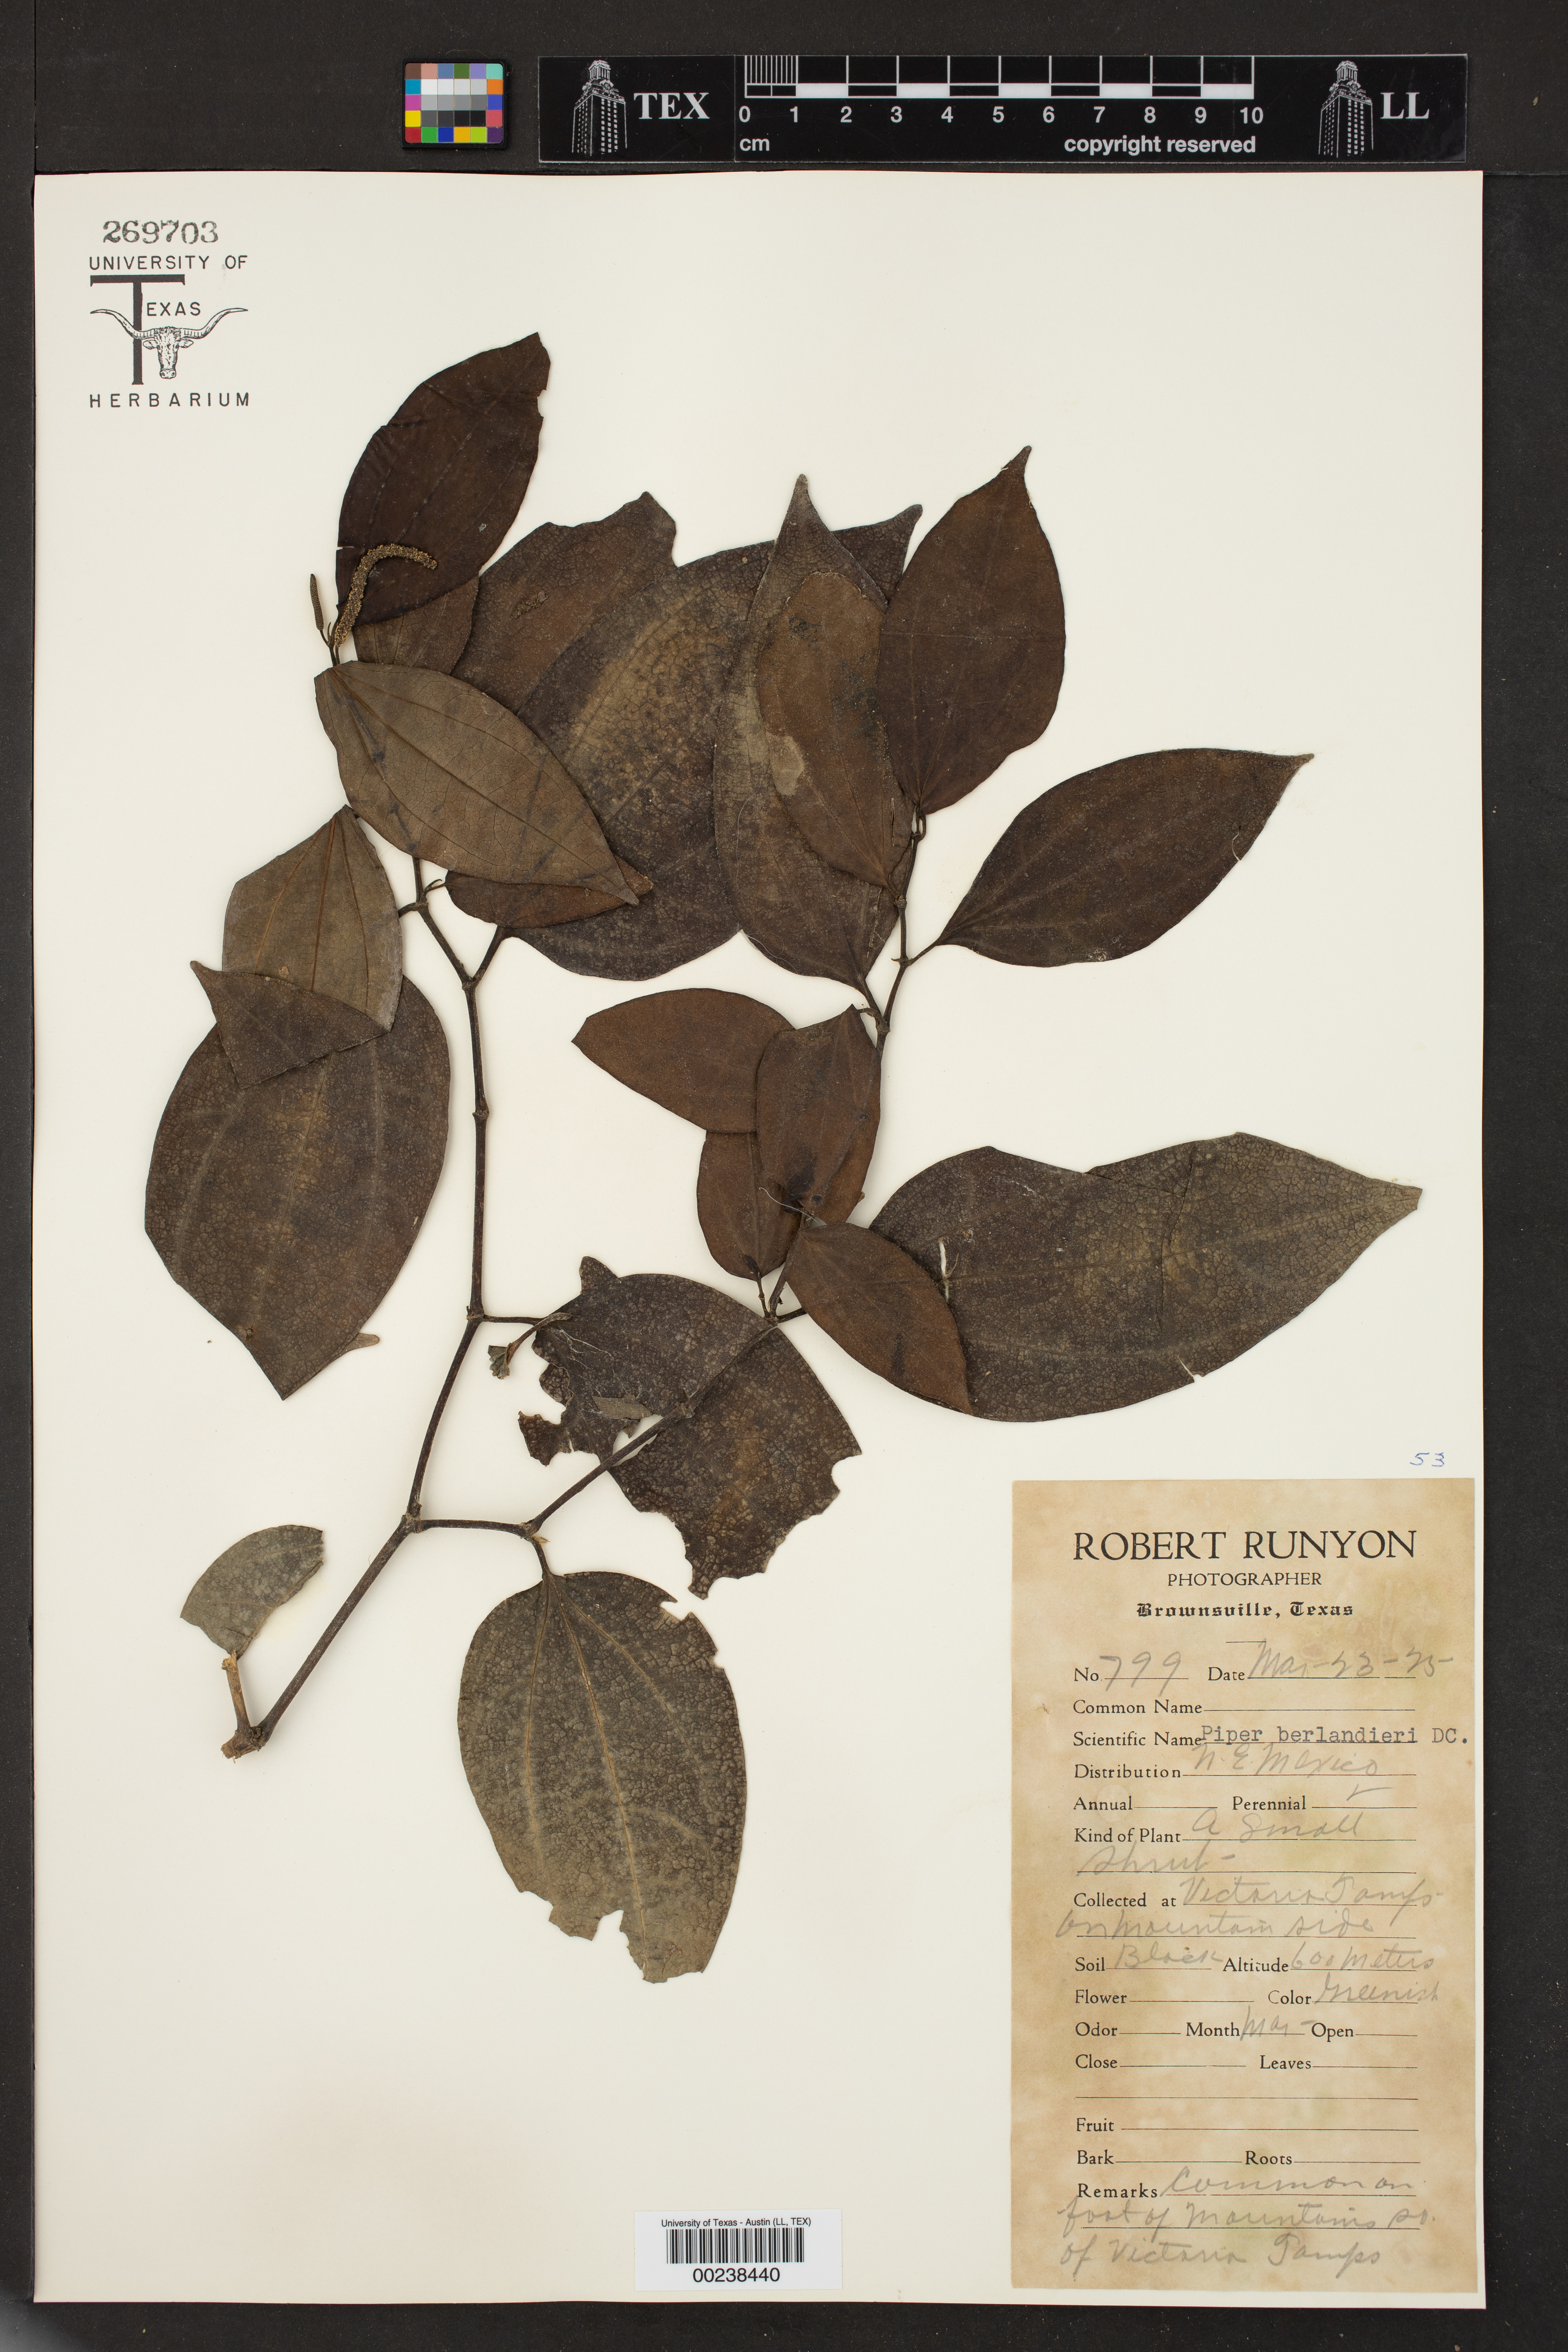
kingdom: Plantae
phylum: Tracheophyta
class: Magnoliopsida
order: Piperales
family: Piperaceae
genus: Piper
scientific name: Piper berlandieri
